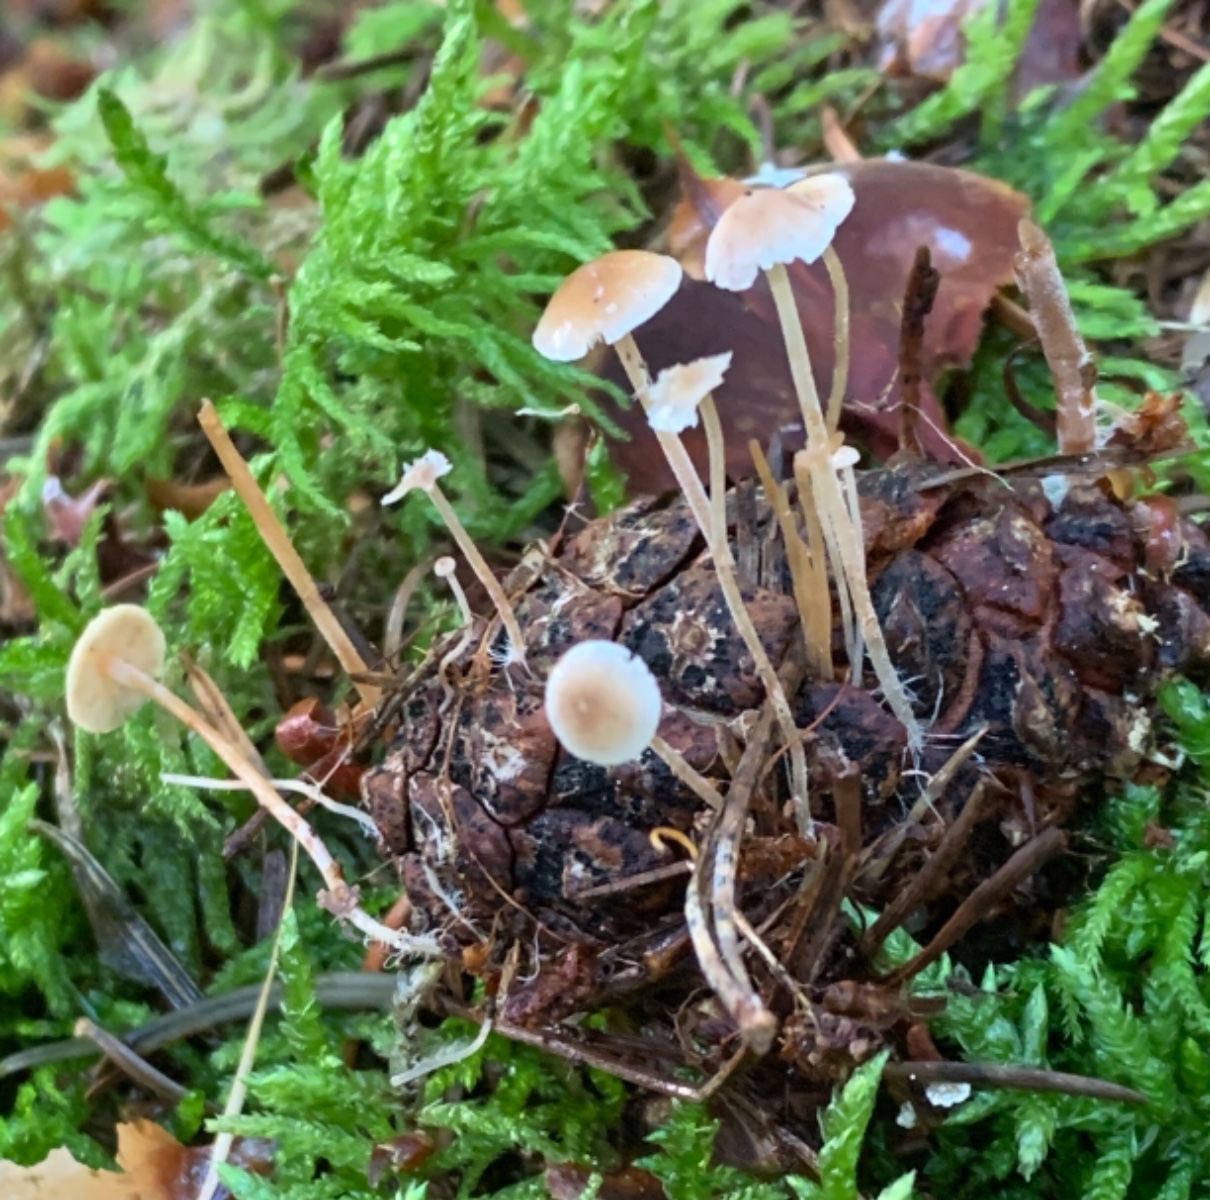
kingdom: Fungi
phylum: Basidiomycota
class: Agaricomycetes
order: Agaricales
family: Marasmiaceae
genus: Baeospora
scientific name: Baeospora myosura
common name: koglebruskhat
